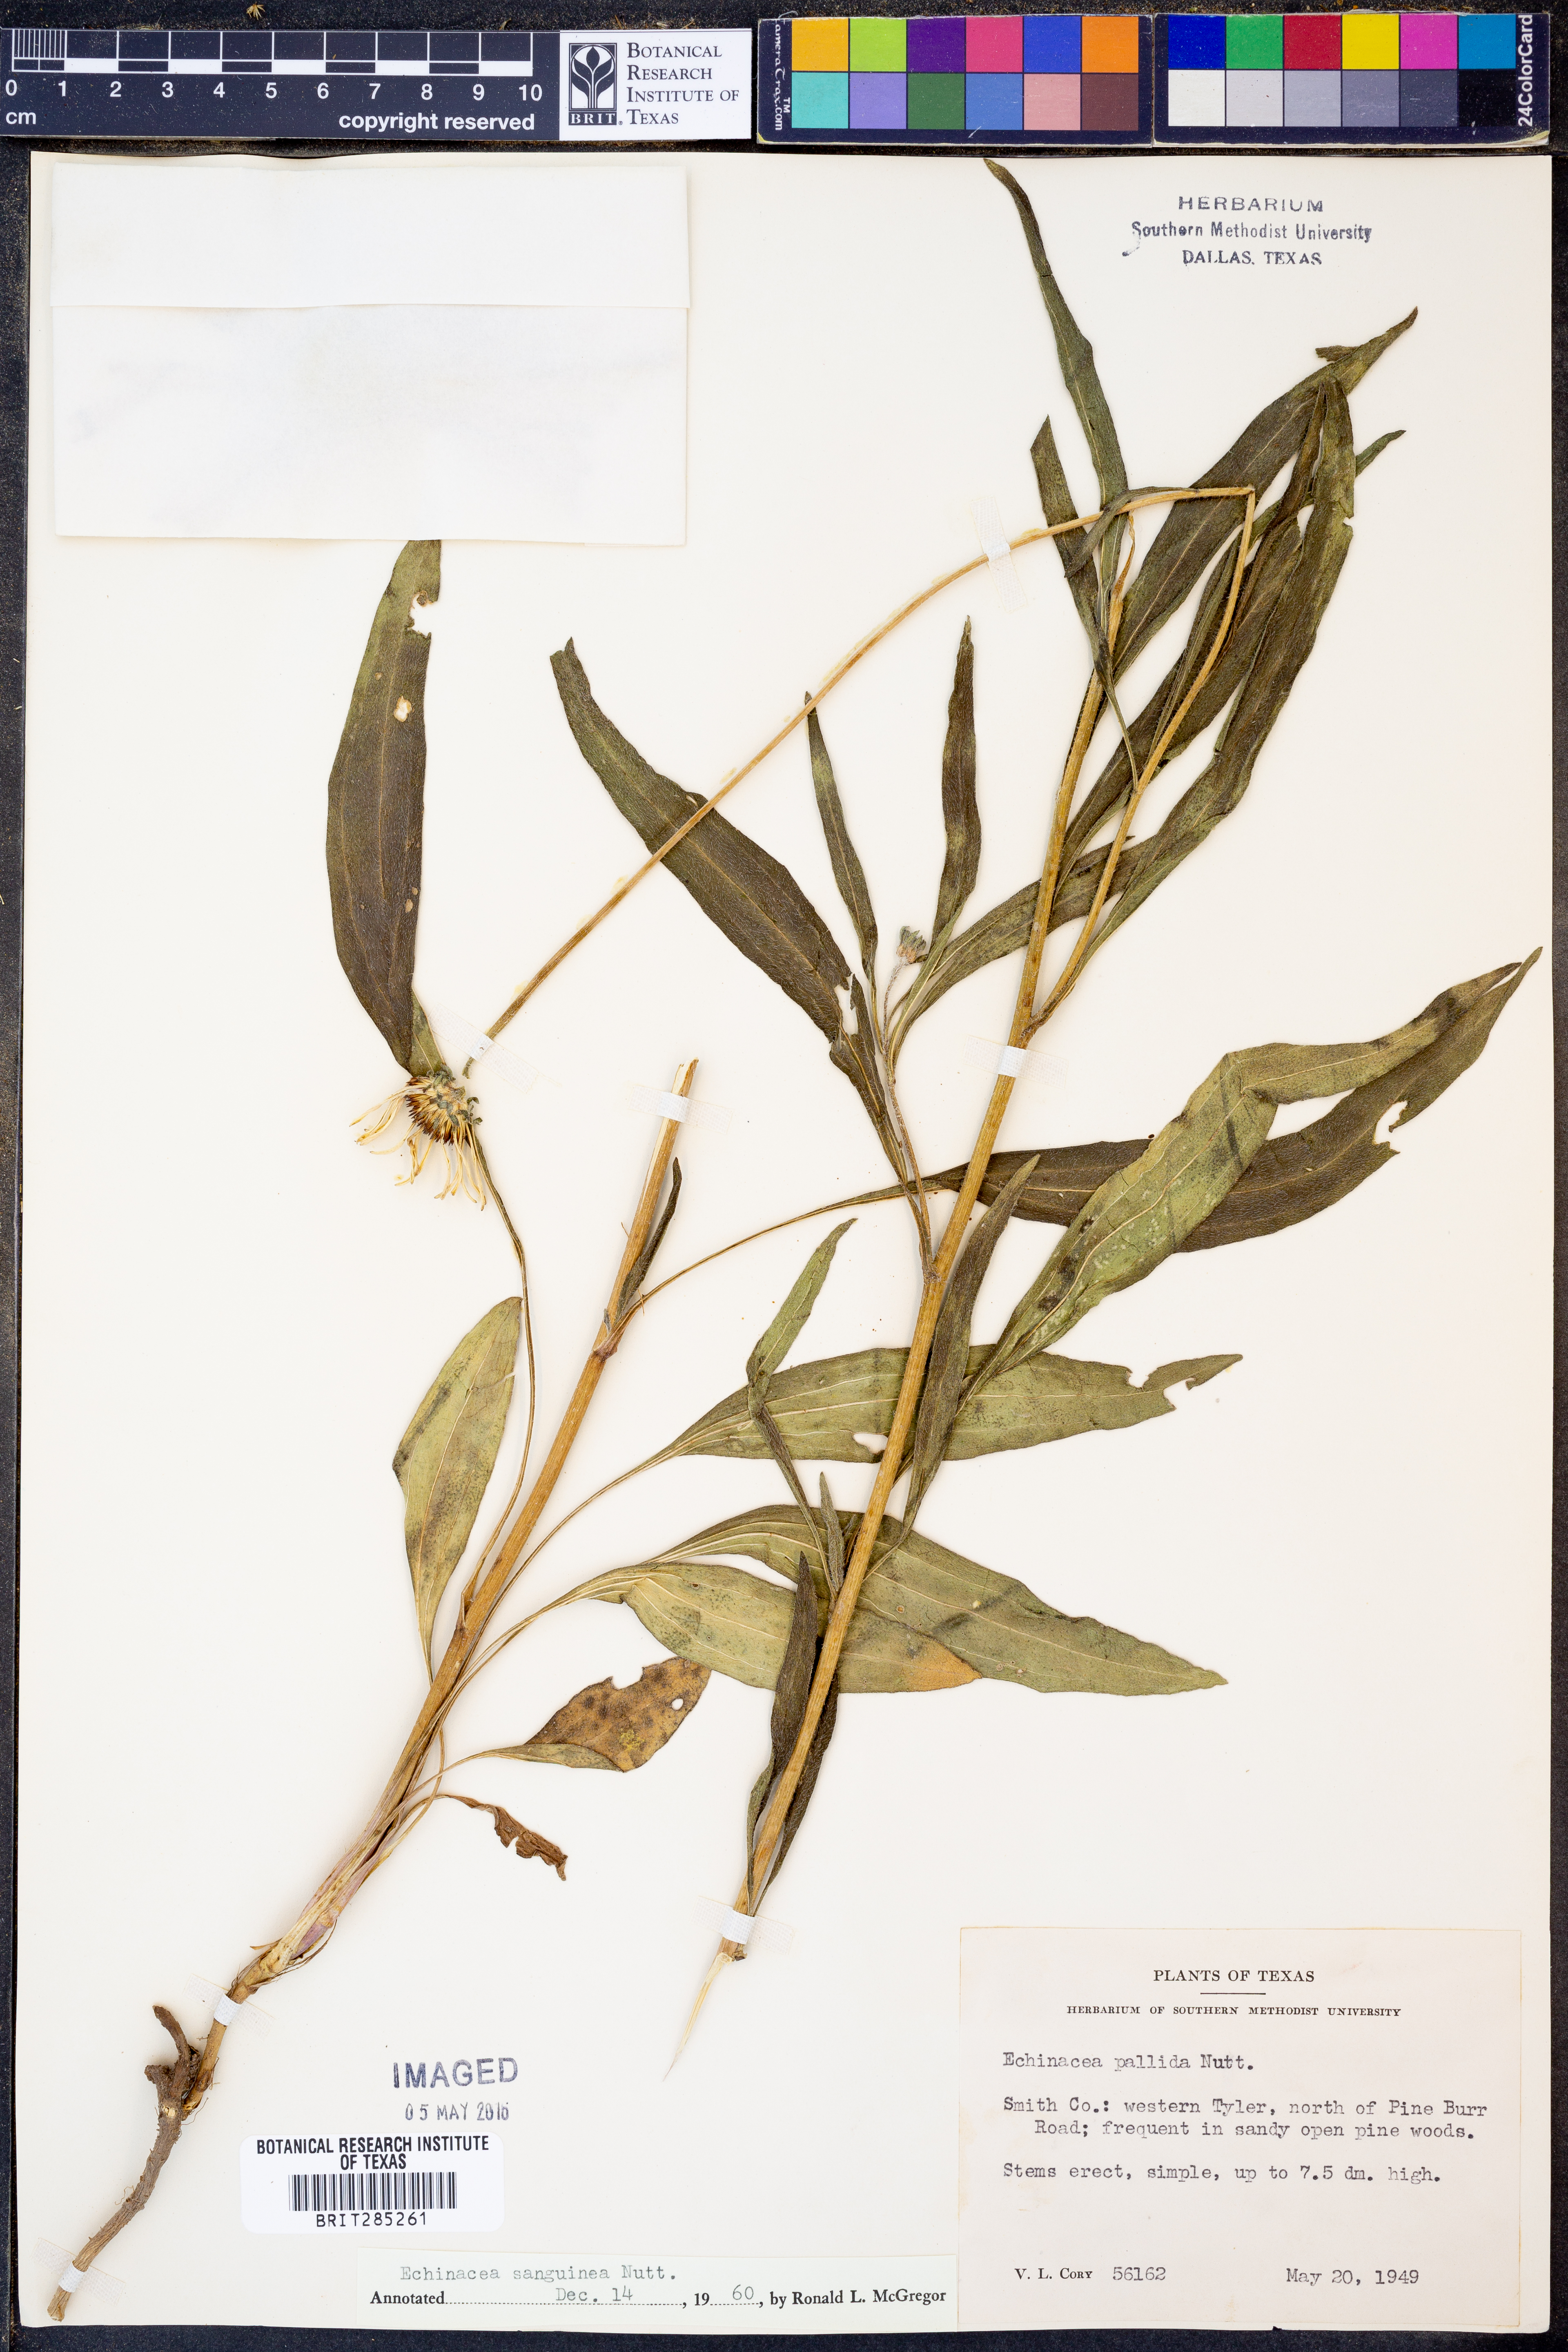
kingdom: Plantae
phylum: Tracheophyta
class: Magnoliopsida
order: Asterales
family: Asteraceae
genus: Echinacea
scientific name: Echinacea sanguinea
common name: Sanguine purple-coneflower
